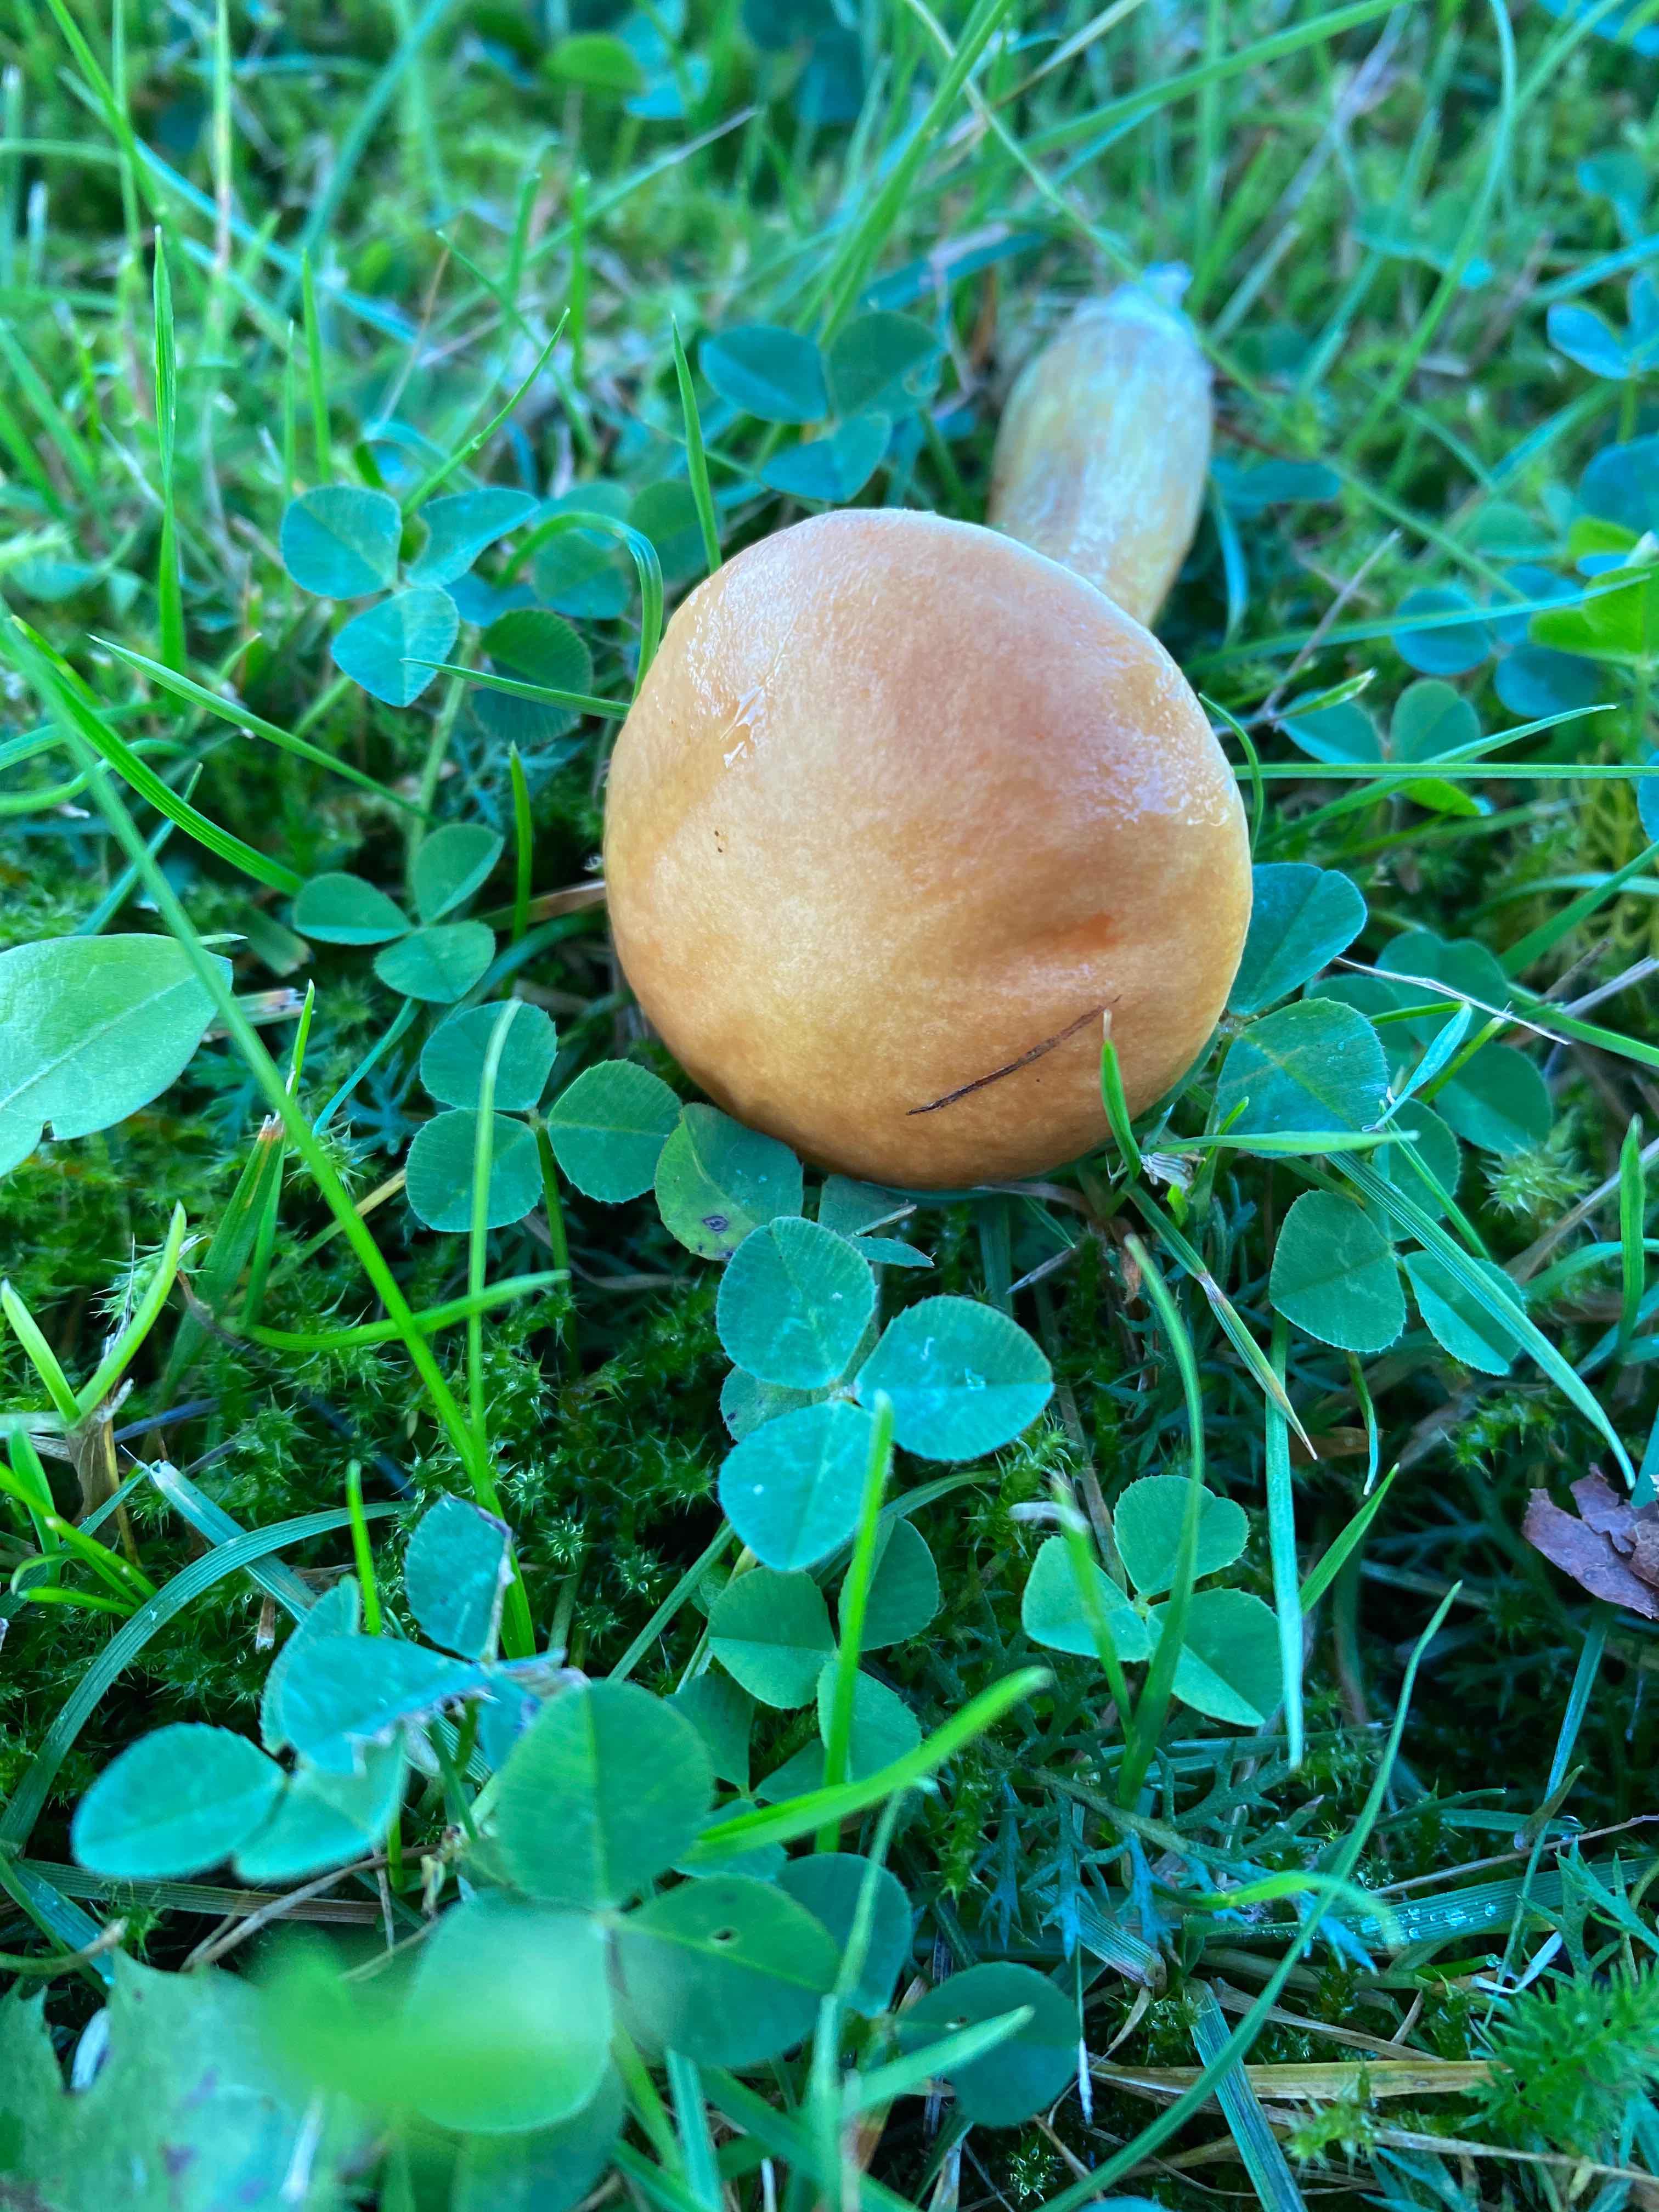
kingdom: Fungi
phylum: Basidiomycota
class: Agaricomycetes
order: Boletales
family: Suillaceae
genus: Suillus
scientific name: Suillus grevillei
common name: lærke-slimrørhat
